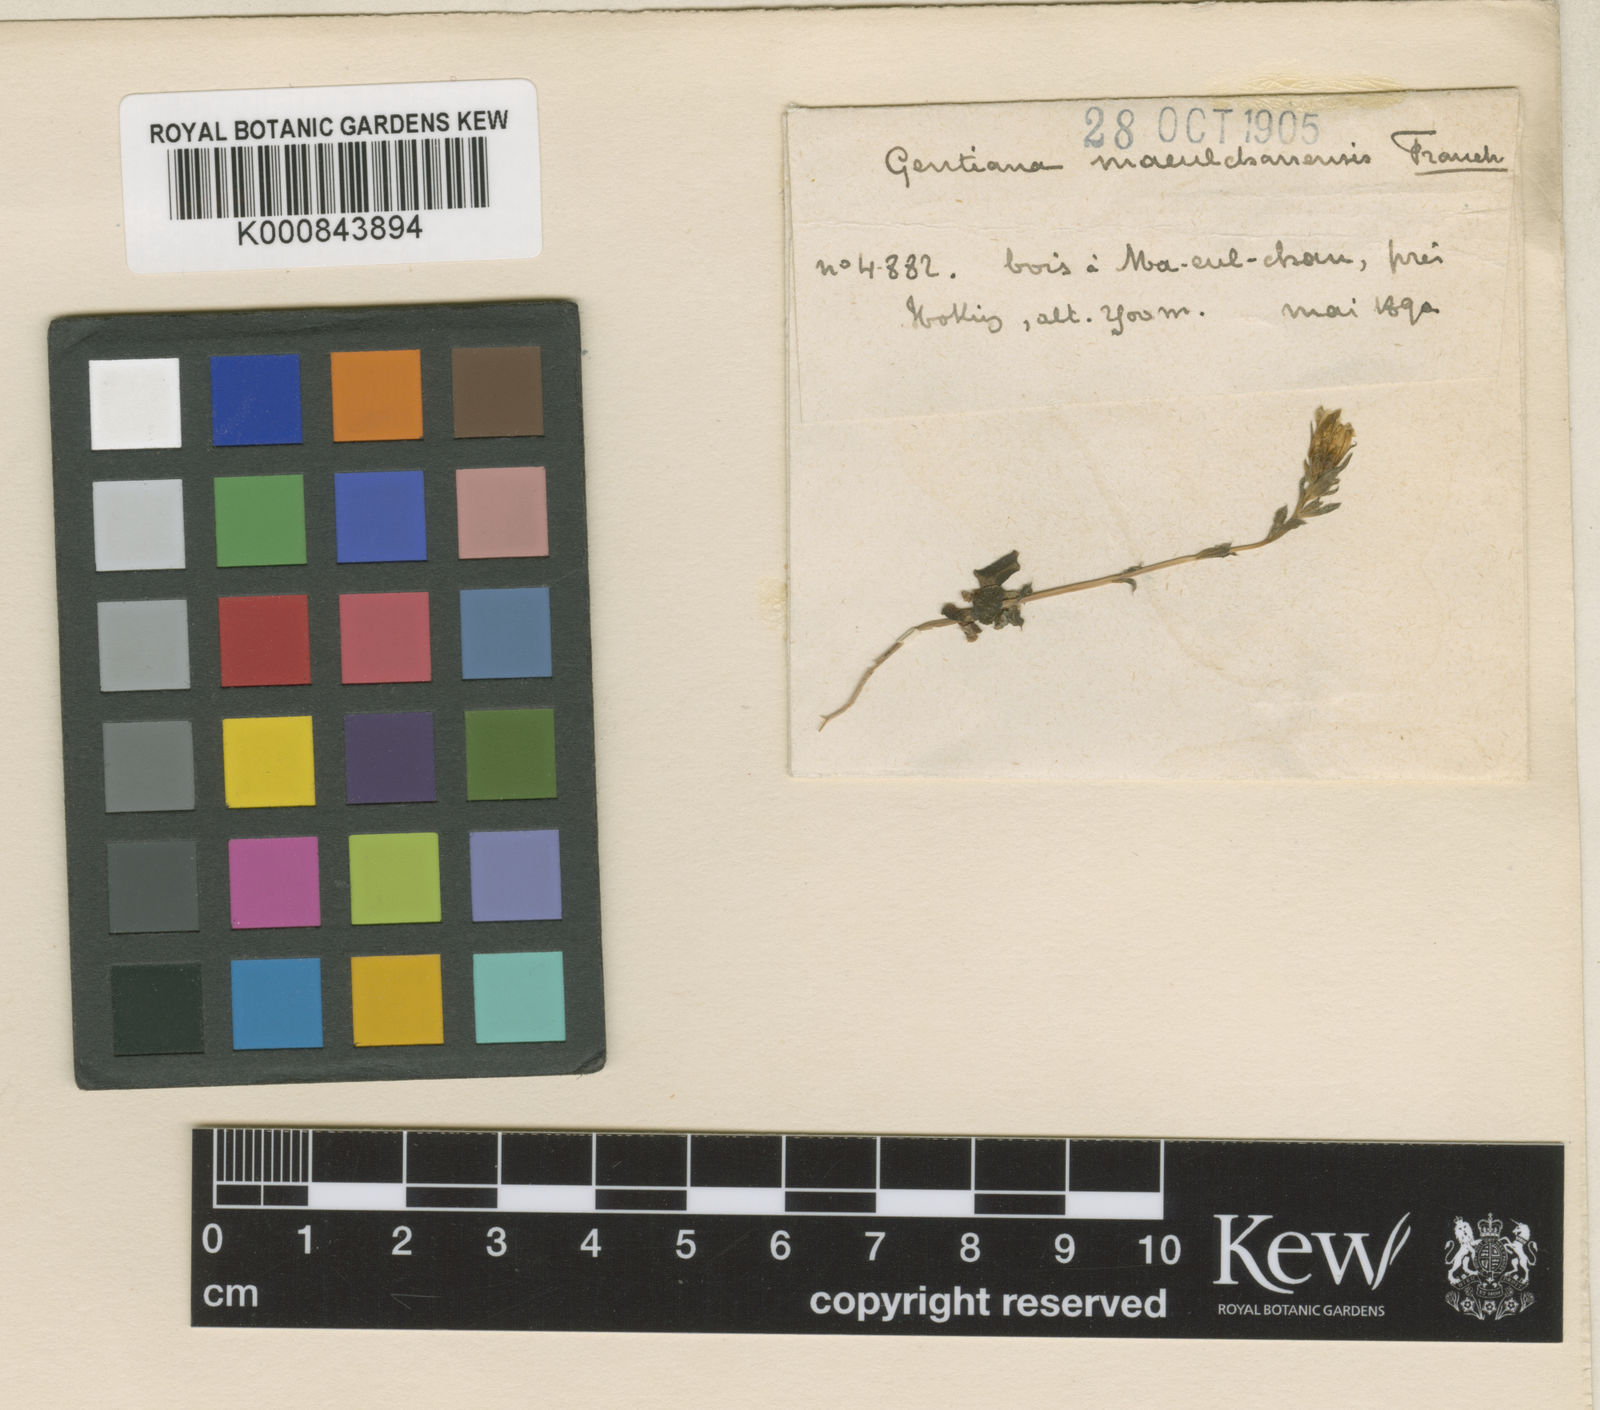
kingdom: Plantae
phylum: Tracheophyta
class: Magnoliopsida
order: Gentianales
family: Gentianaceae
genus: Gentiana
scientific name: Gentiana maeulchanensis
